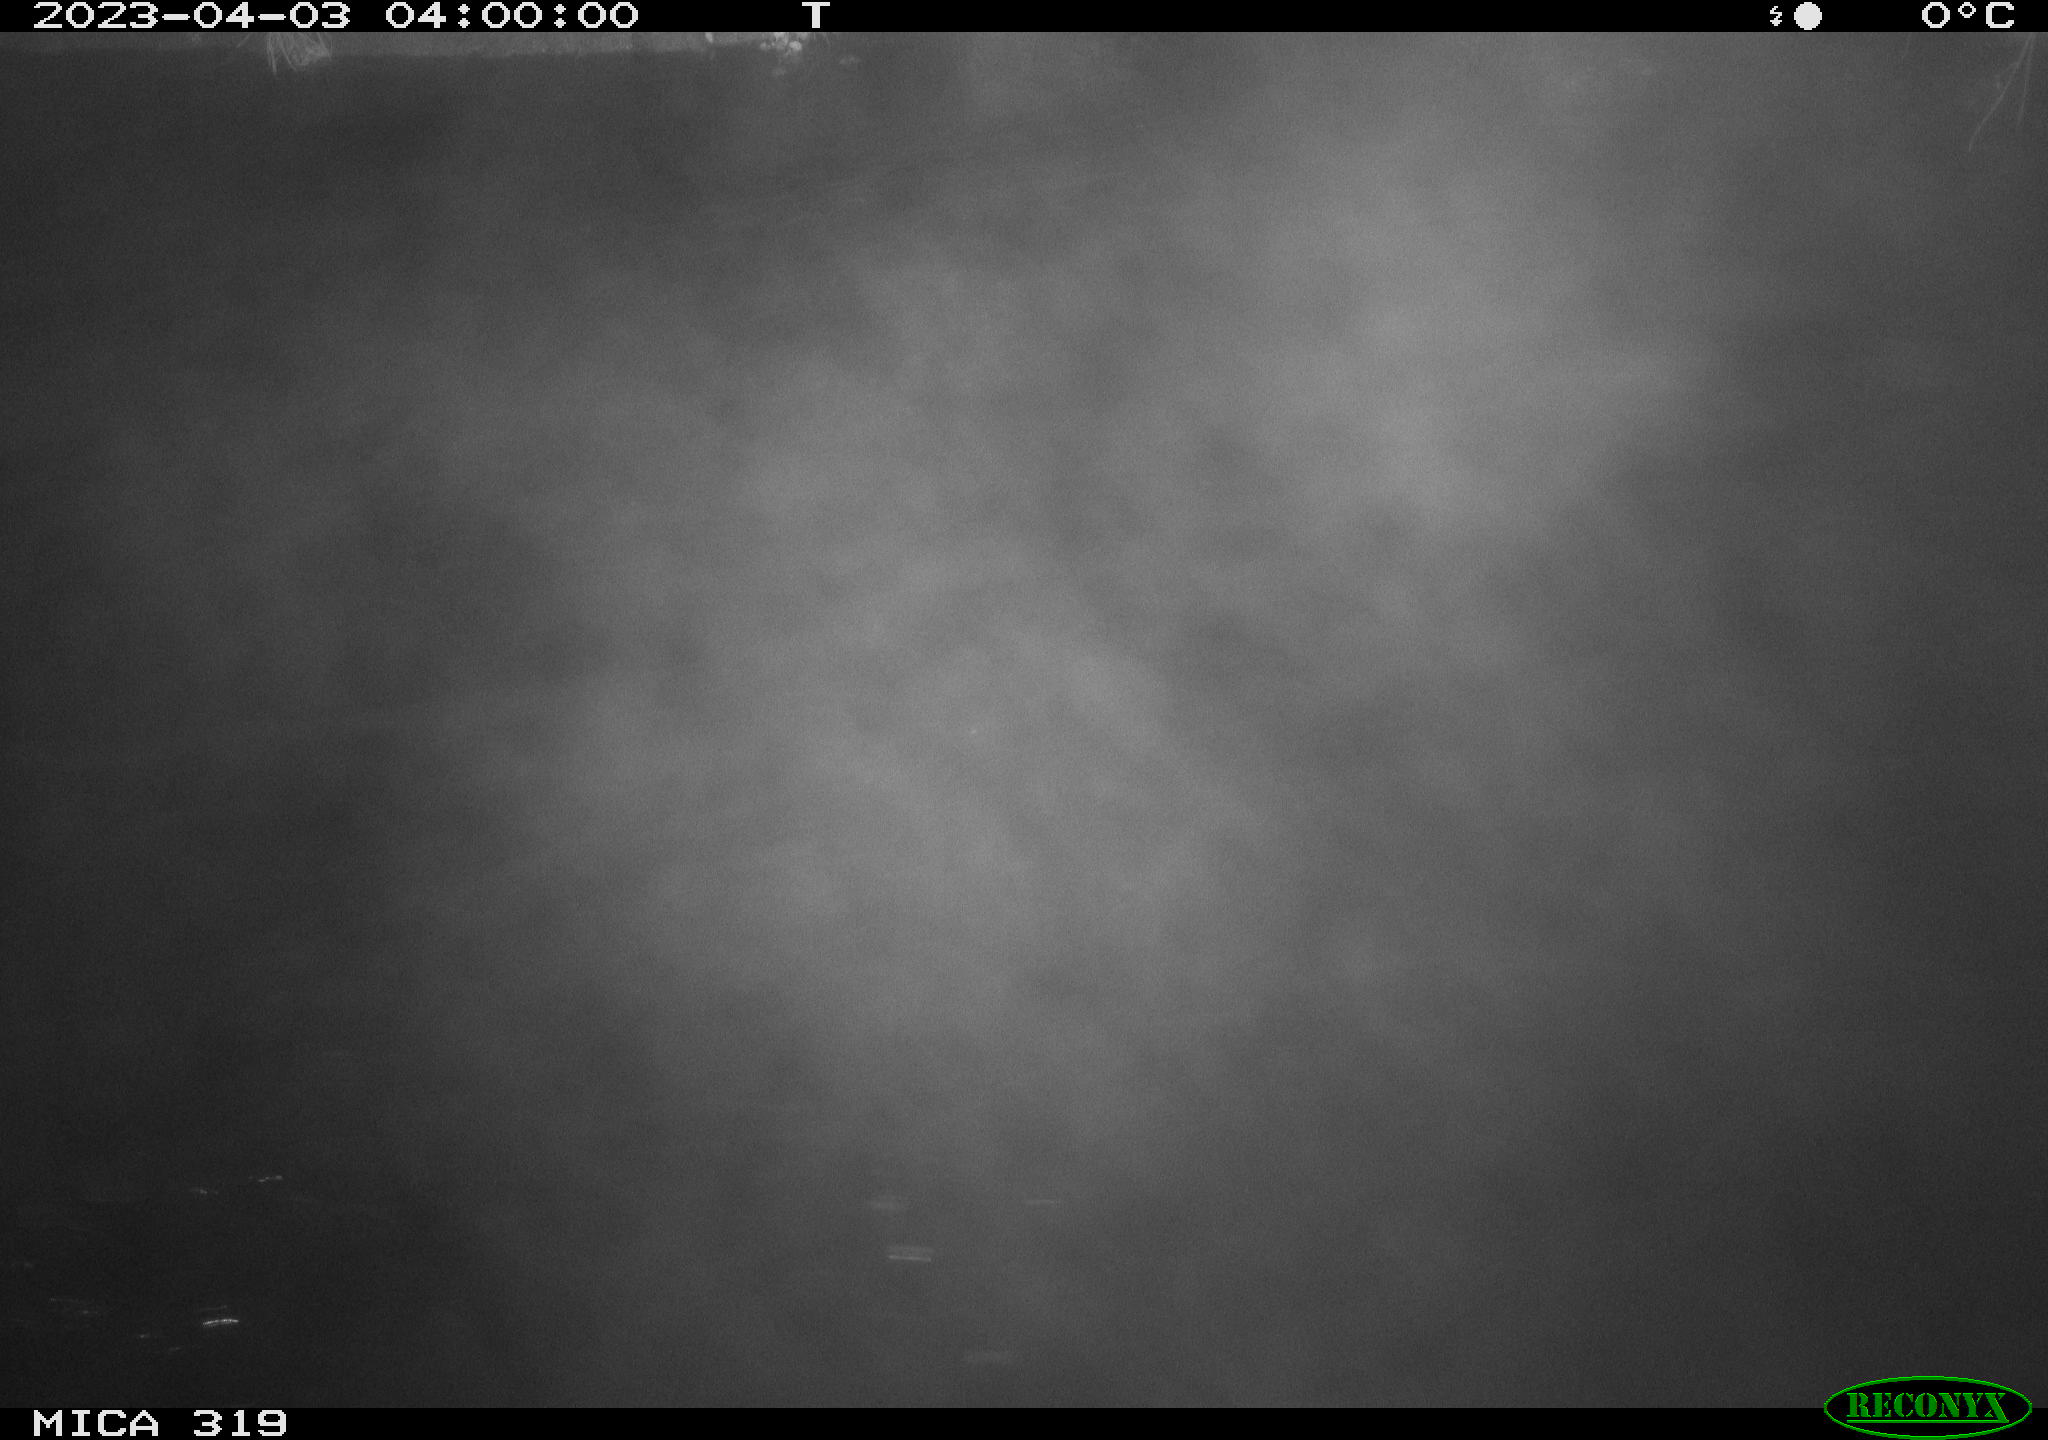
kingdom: Animalia
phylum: Chordata
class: Mammalia
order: Rodentia
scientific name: Rodentia
